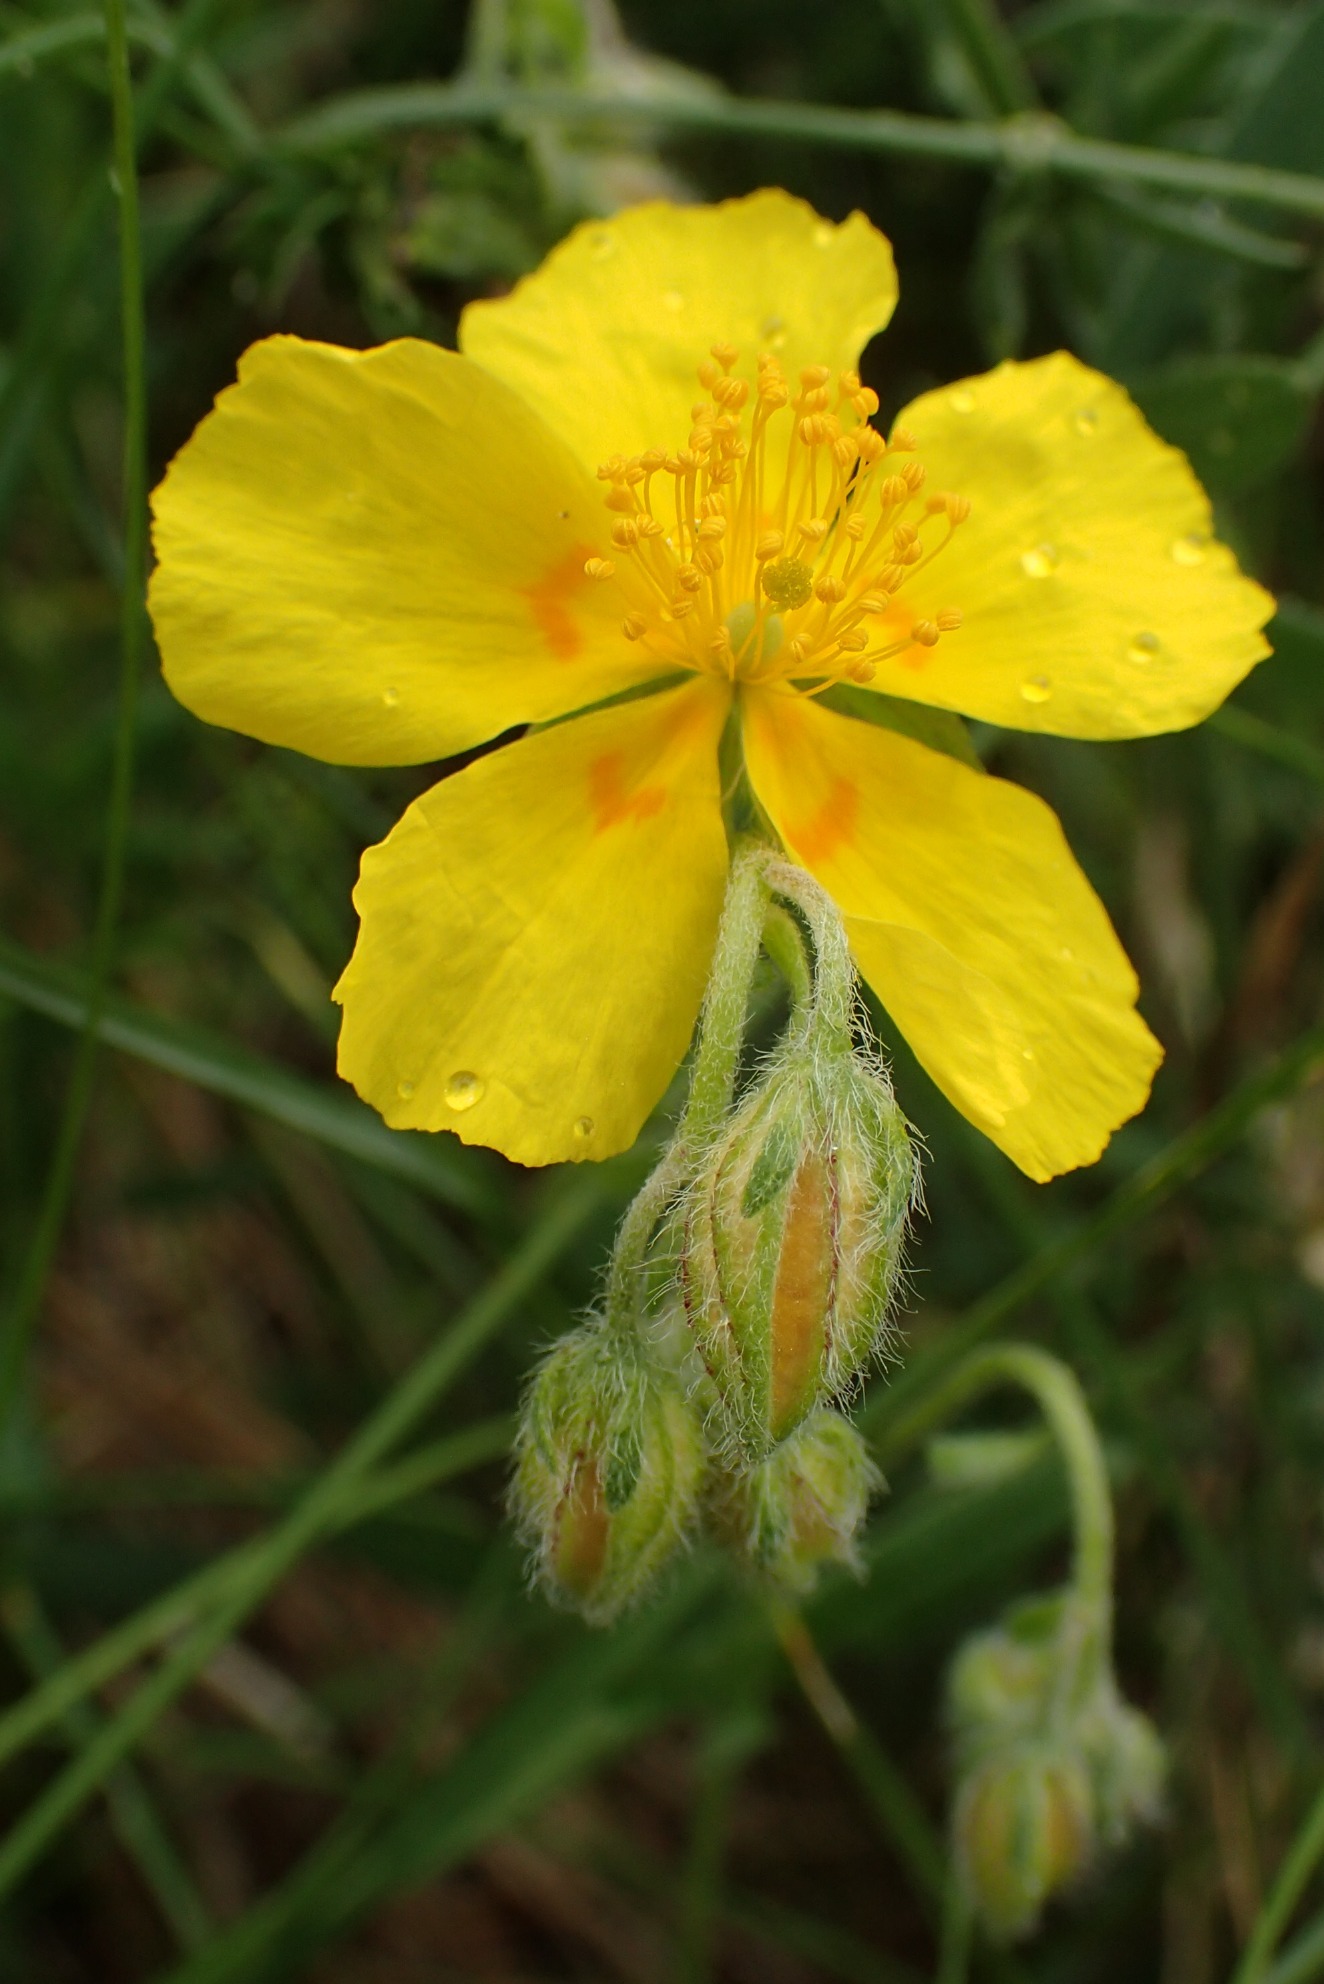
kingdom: Plantae
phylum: Tracheophyta
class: Magnoliopsida
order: Malvales
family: Cistaceae
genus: Helianthemum
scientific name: Helianthemum nummularium
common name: Bakke-soløje
